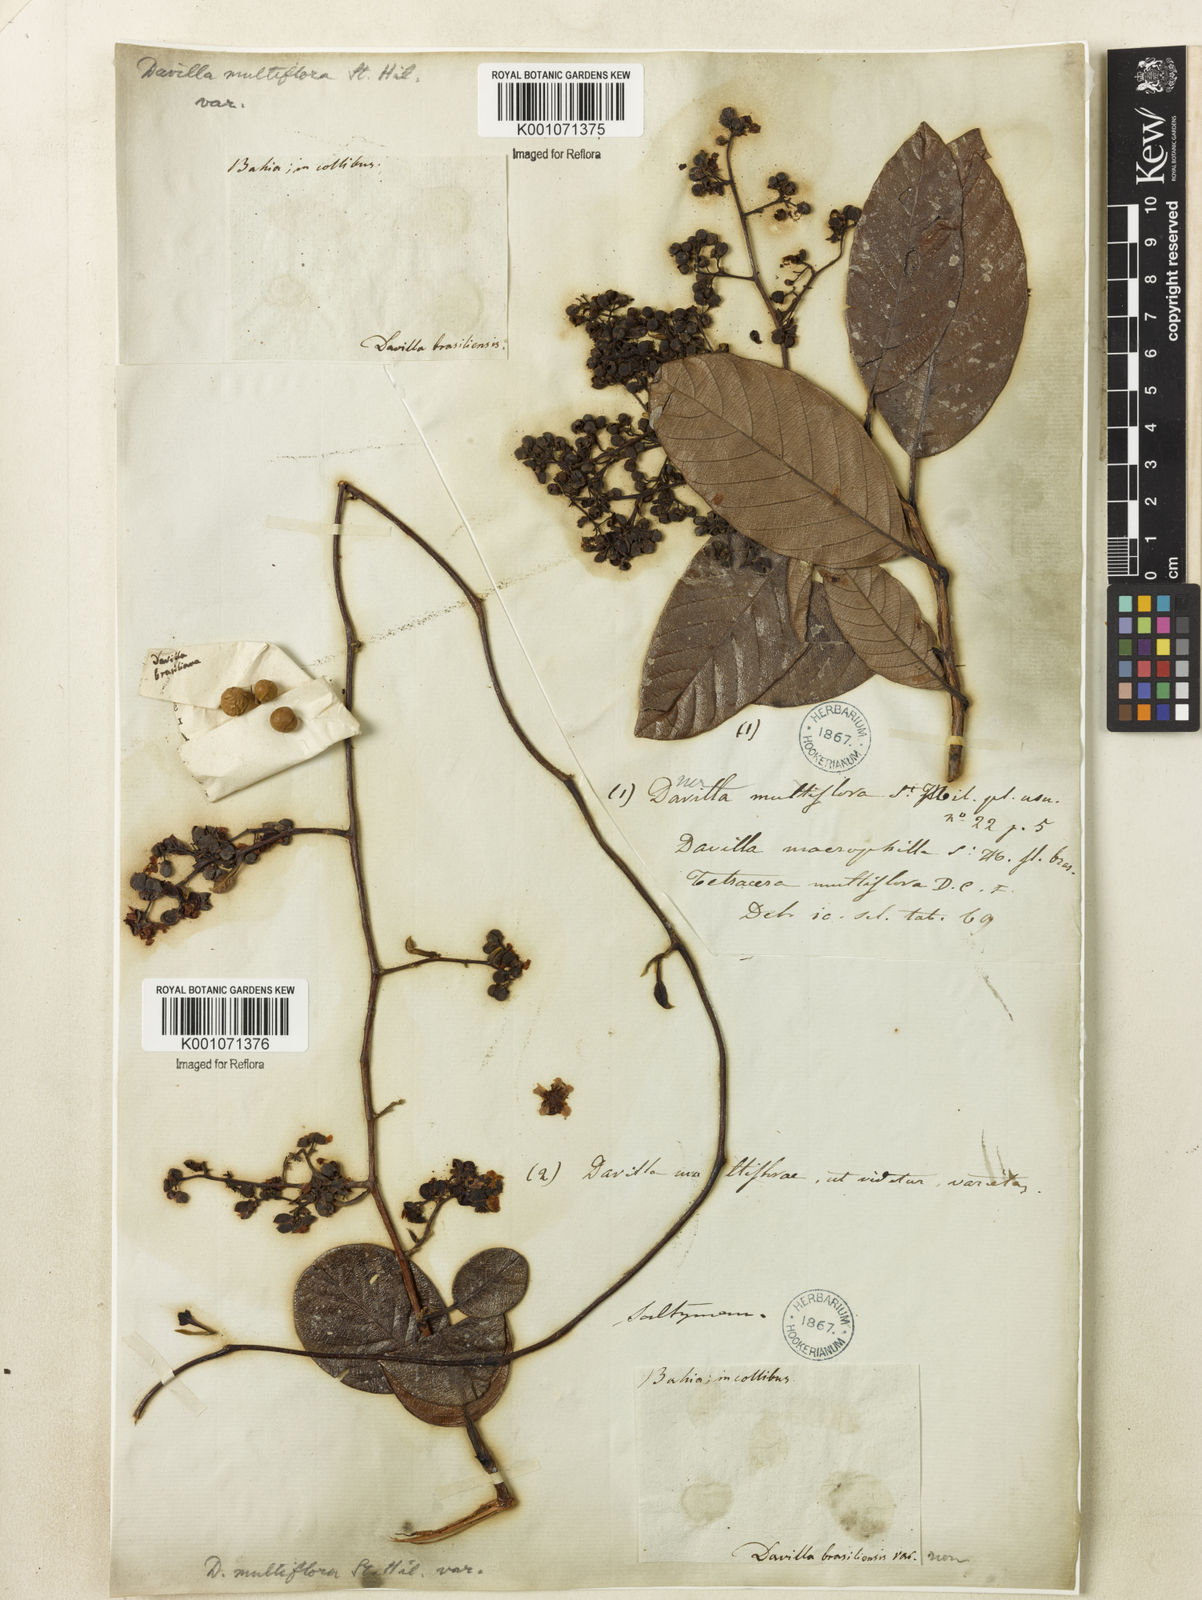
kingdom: Plantae
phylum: Tracheophyta
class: Magnoliopsida
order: Dilleniales
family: Dilleniaceae
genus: Davilla
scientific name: Davilla nitida
